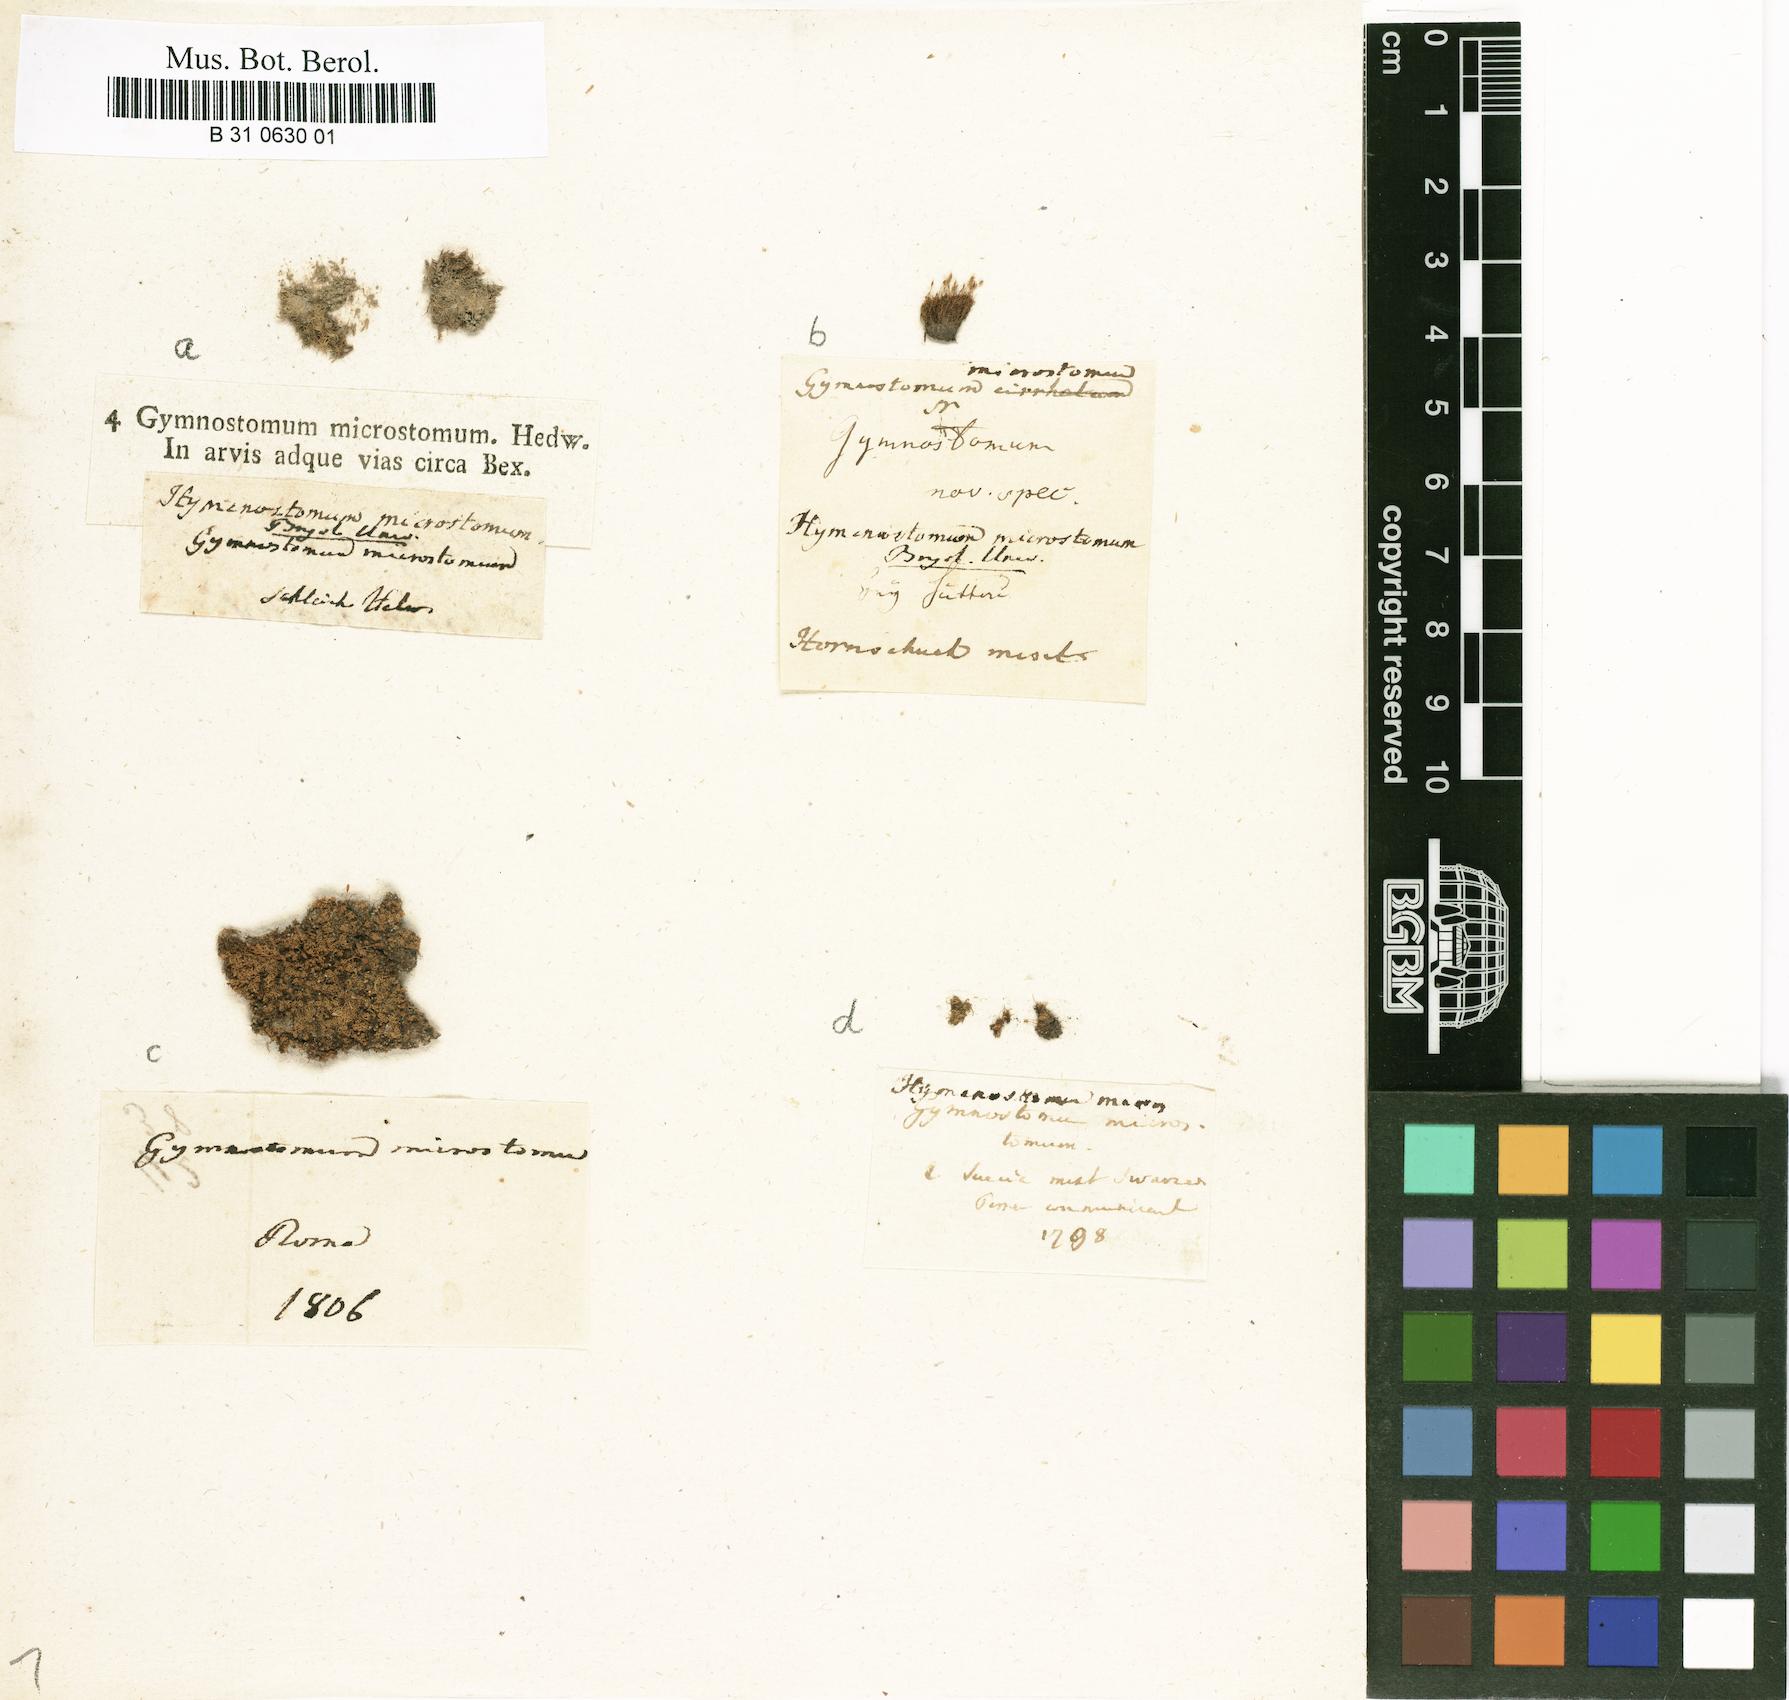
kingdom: Plantae
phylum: Bryophyta
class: Bryopsida
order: Pottiales
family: Pottiaceae
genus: Weissia
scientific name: Weissia brachycarpa
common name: Small-mouthed beardless-moss
